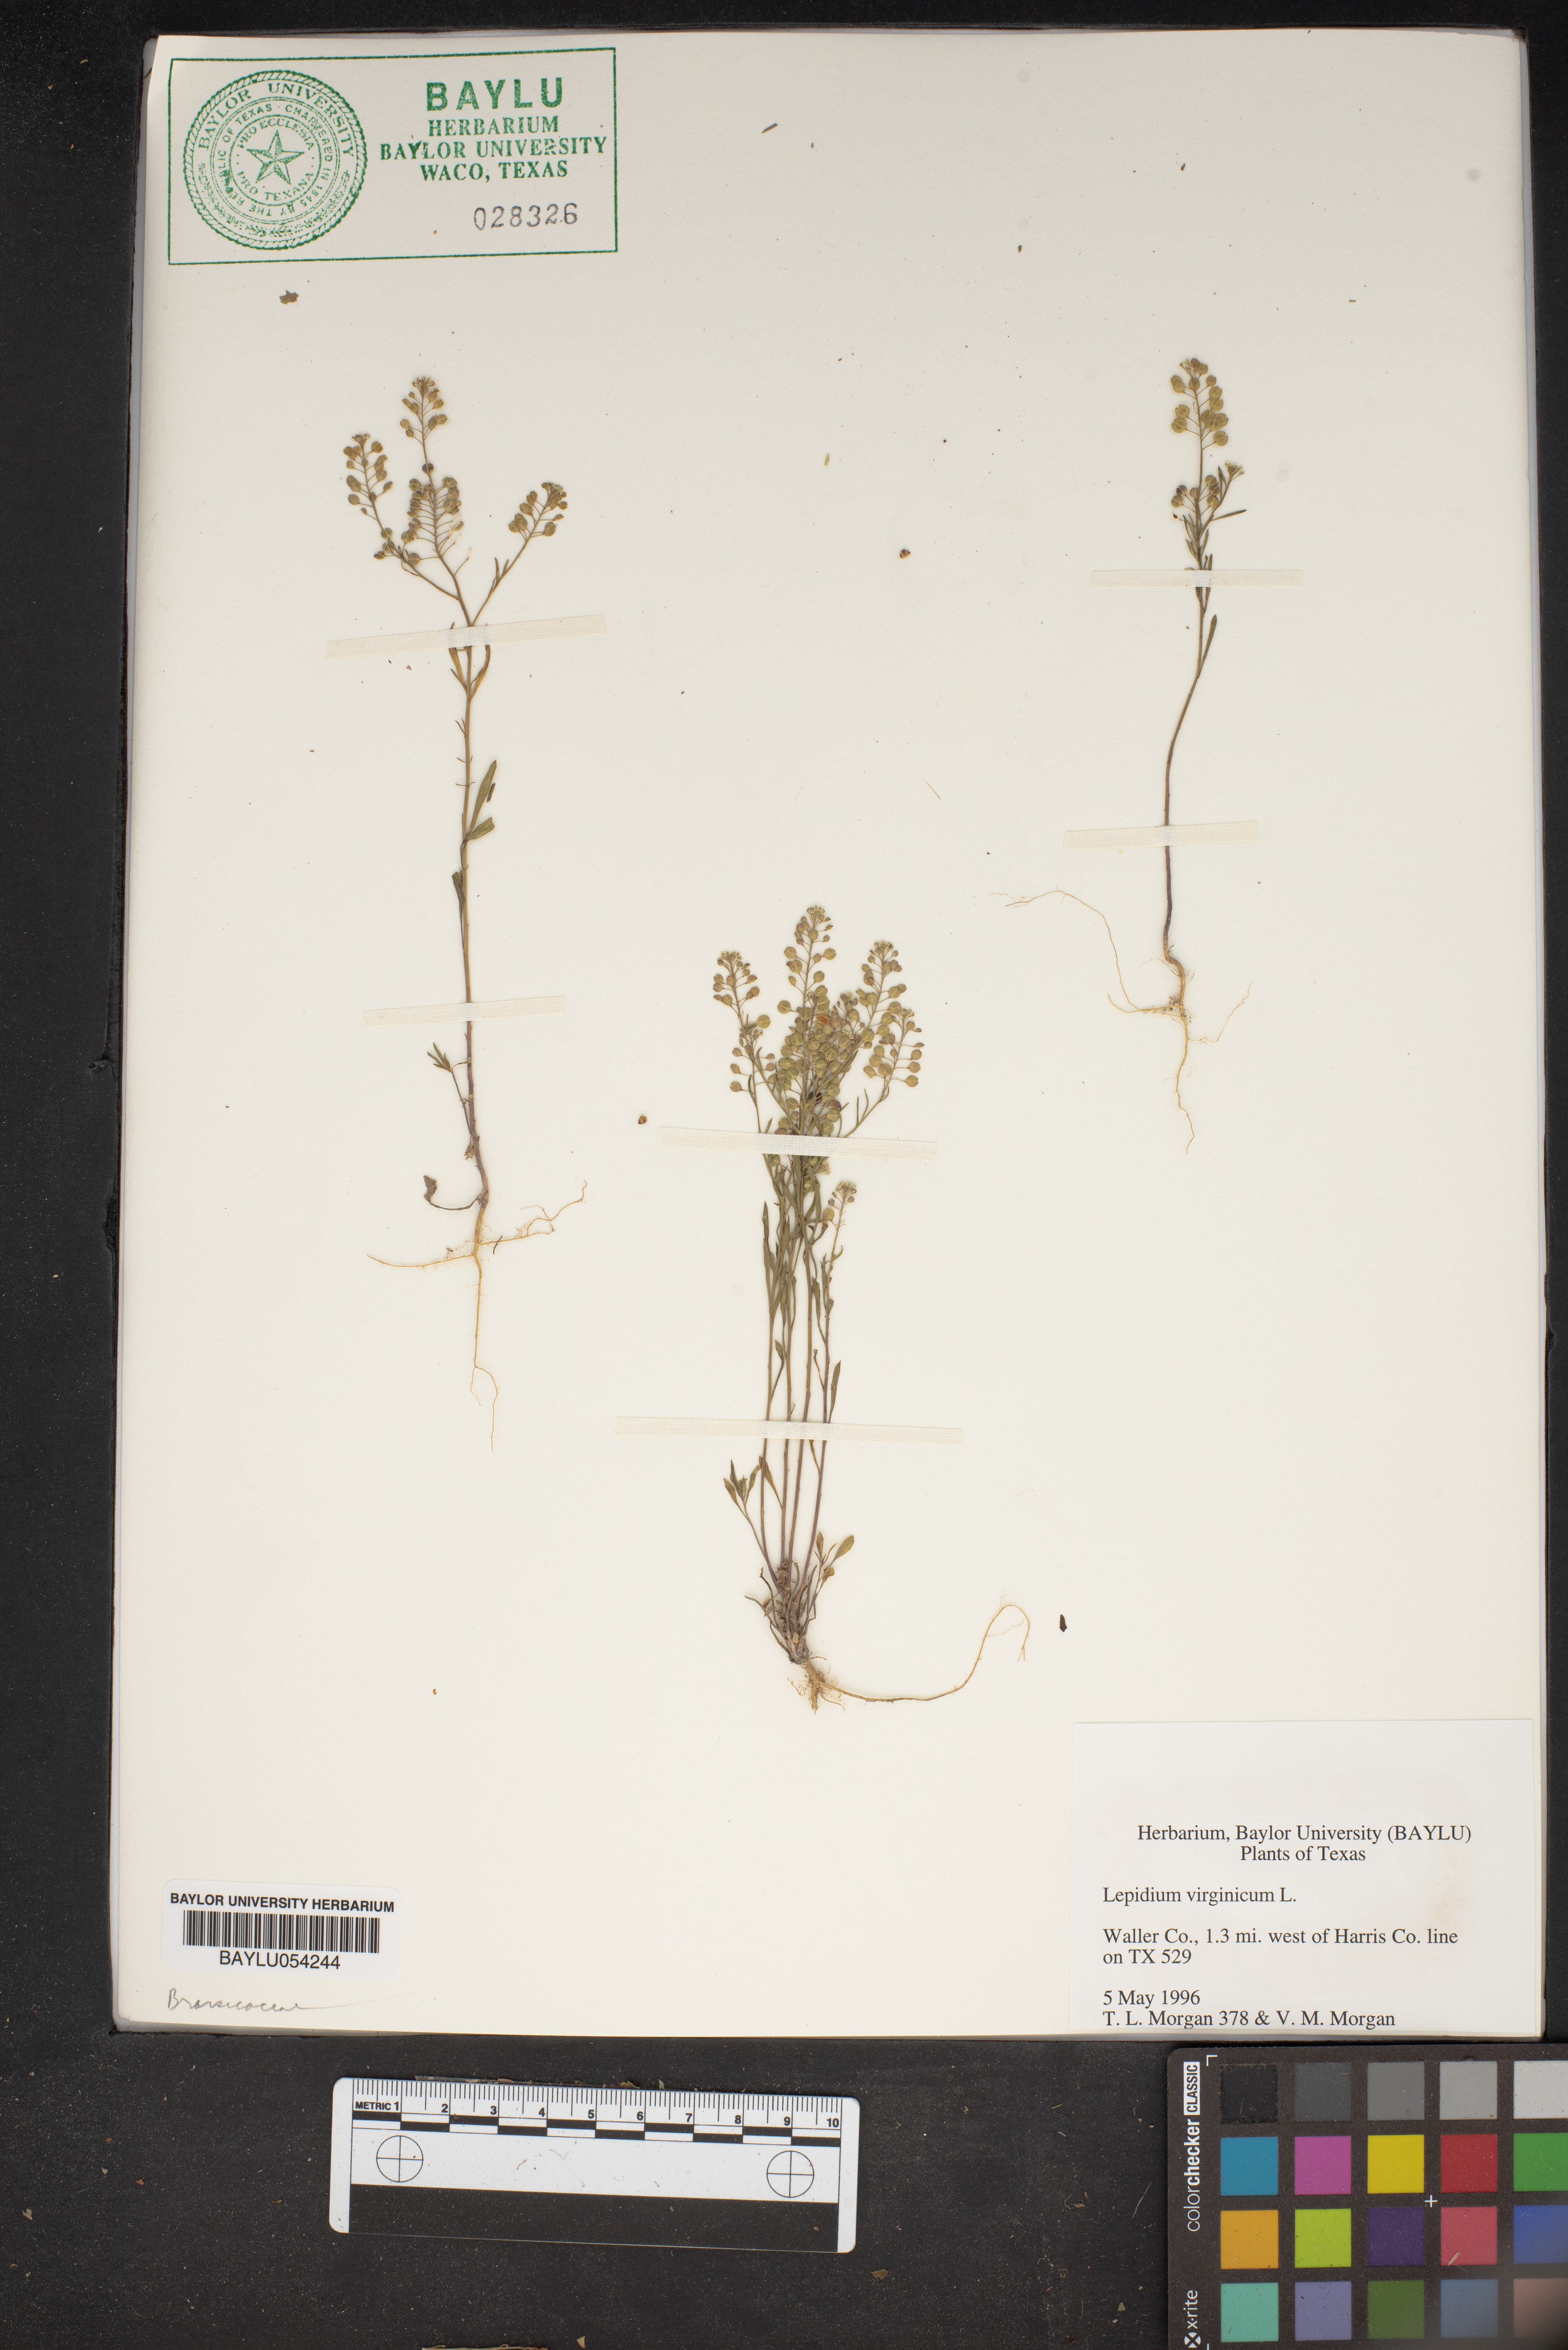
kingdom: Plantae
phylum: Tracheophyta
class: Magnoliopsida
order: Brassicales
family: Brassicaceae
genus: Lepidium
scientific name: Lepidium virginicum
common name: Least pepperwort
